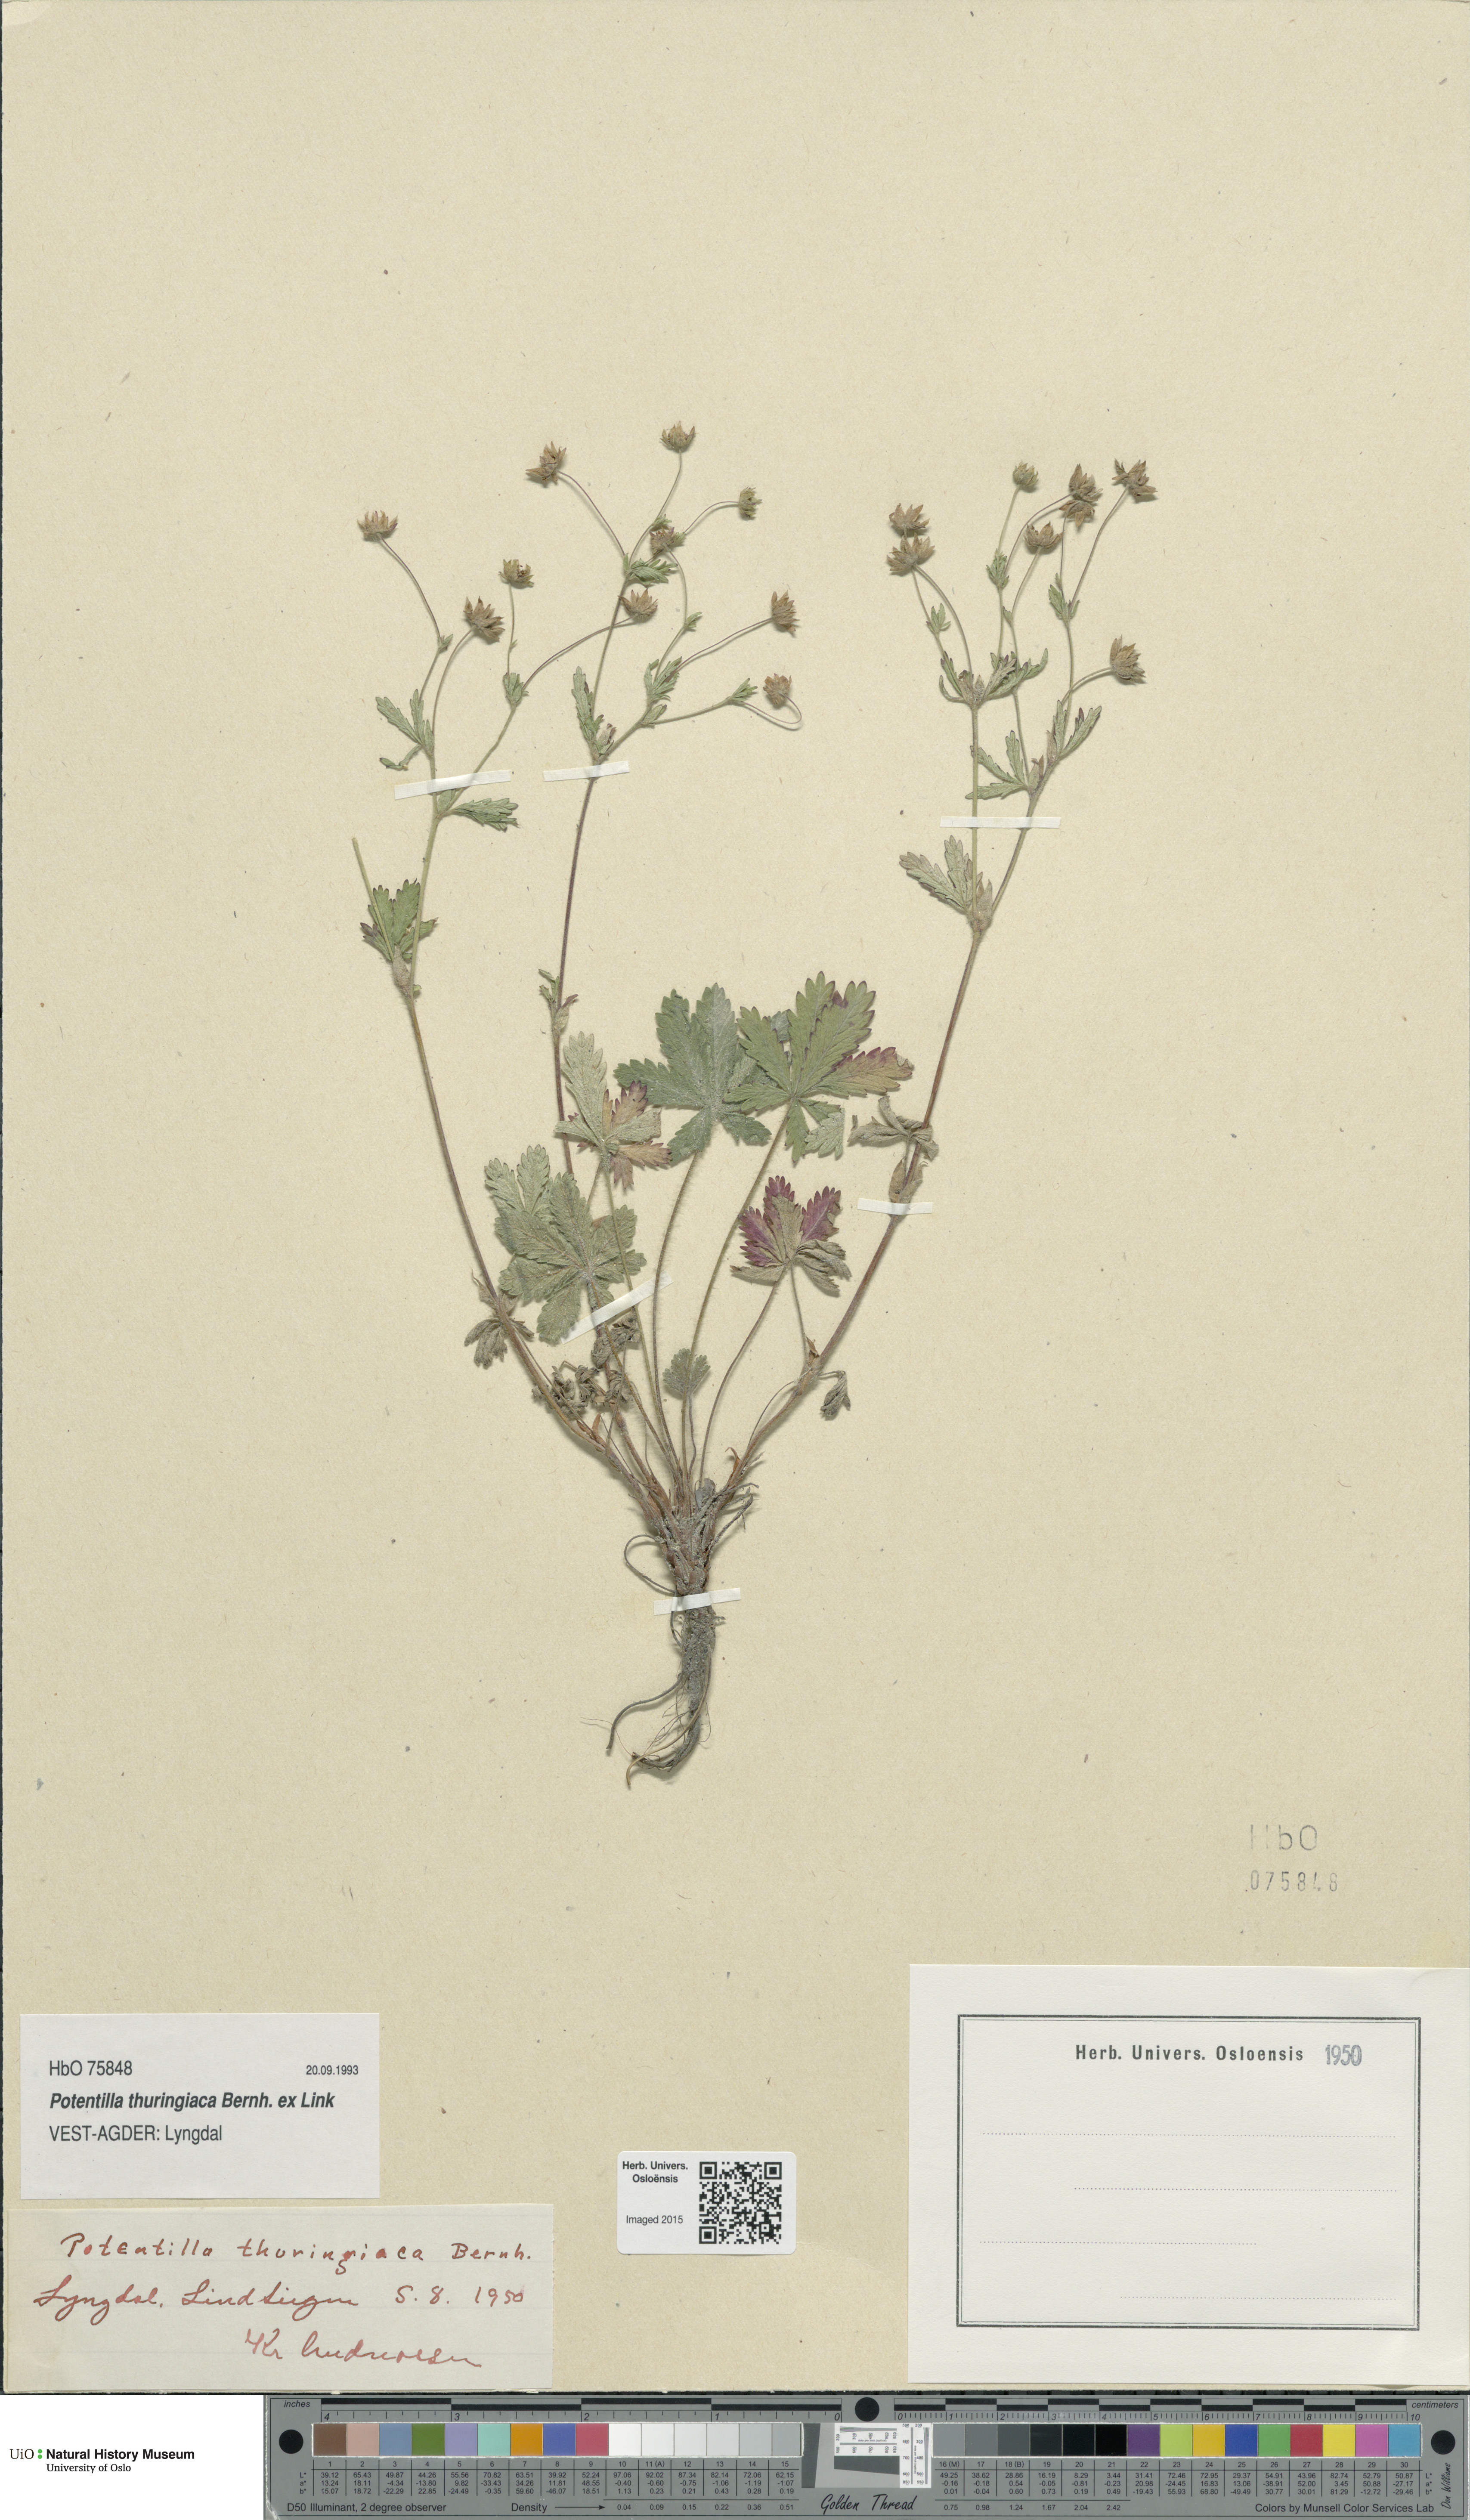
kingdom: Plantae
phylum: Tracheophyta
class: Magnoliopsida
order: Rosales
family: Rosaceae
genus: Potentilla
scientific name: Potentilla thuringiaca
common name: European cinquefoil
